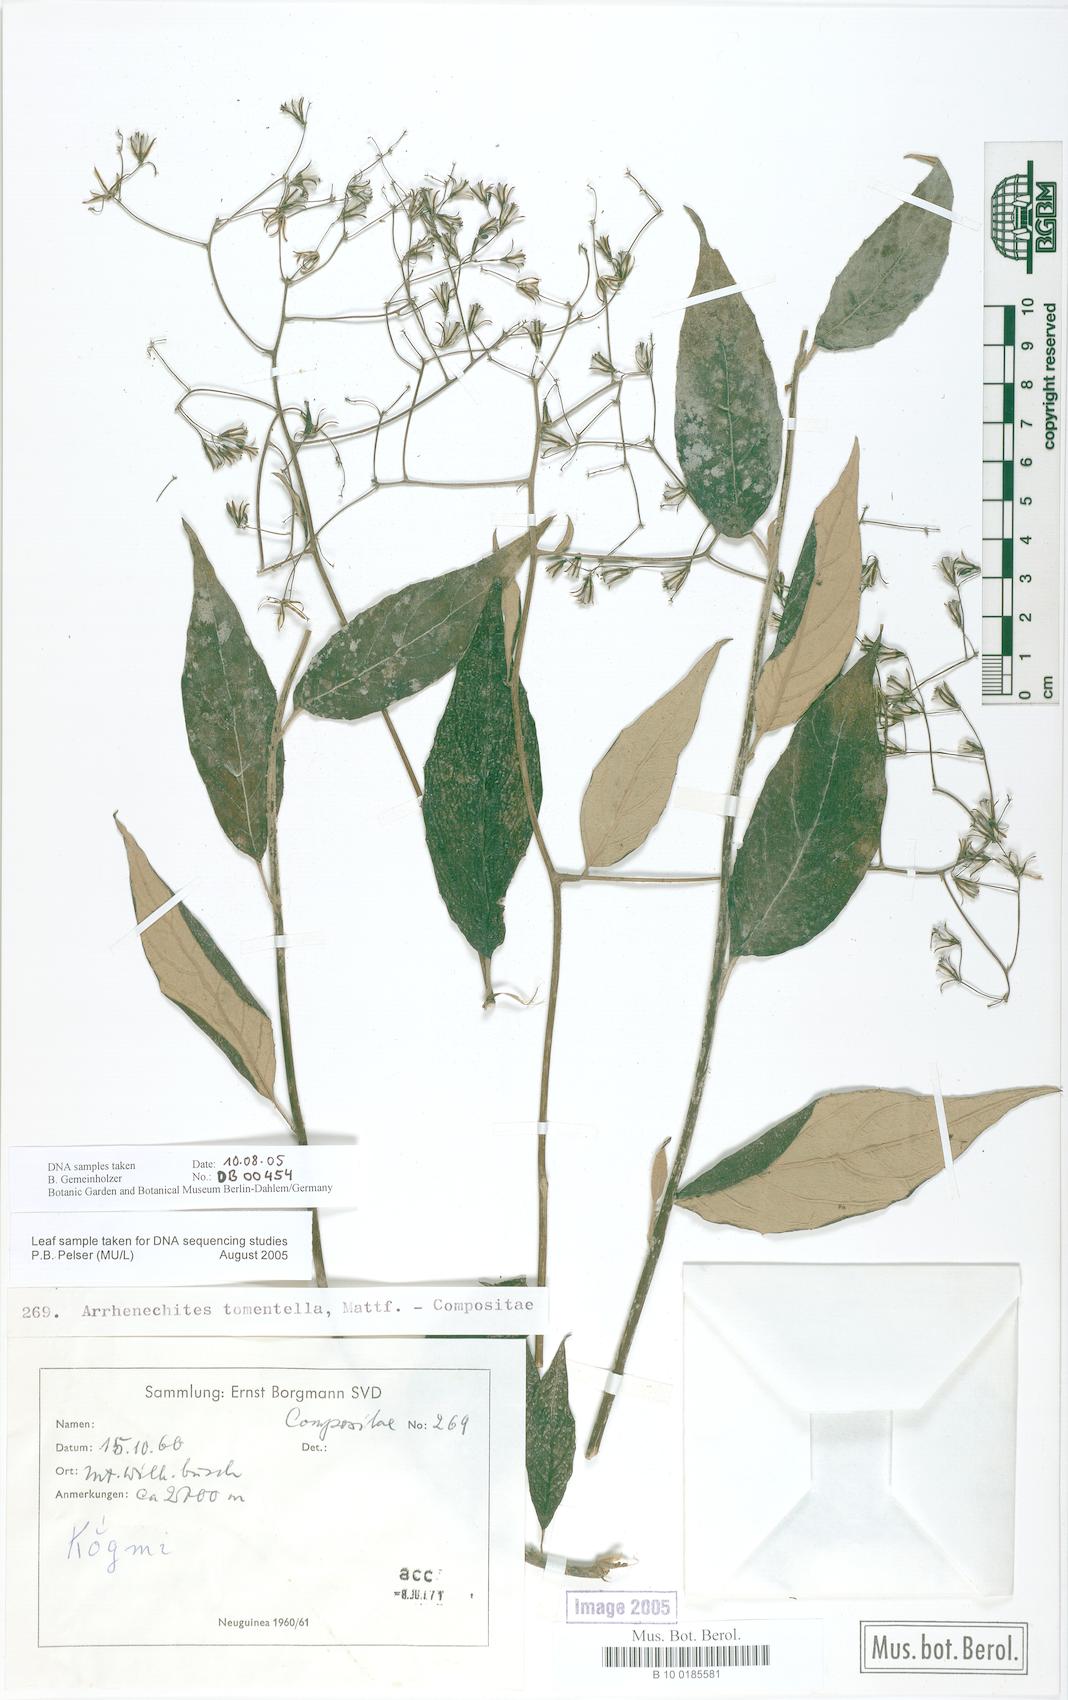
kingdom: Plantae
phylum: Tracheophyta
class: Magnoliopsida
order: Asterales
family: Asteraceae
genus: Arrhenechthites
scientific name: Arrhenechthites tomentellus
